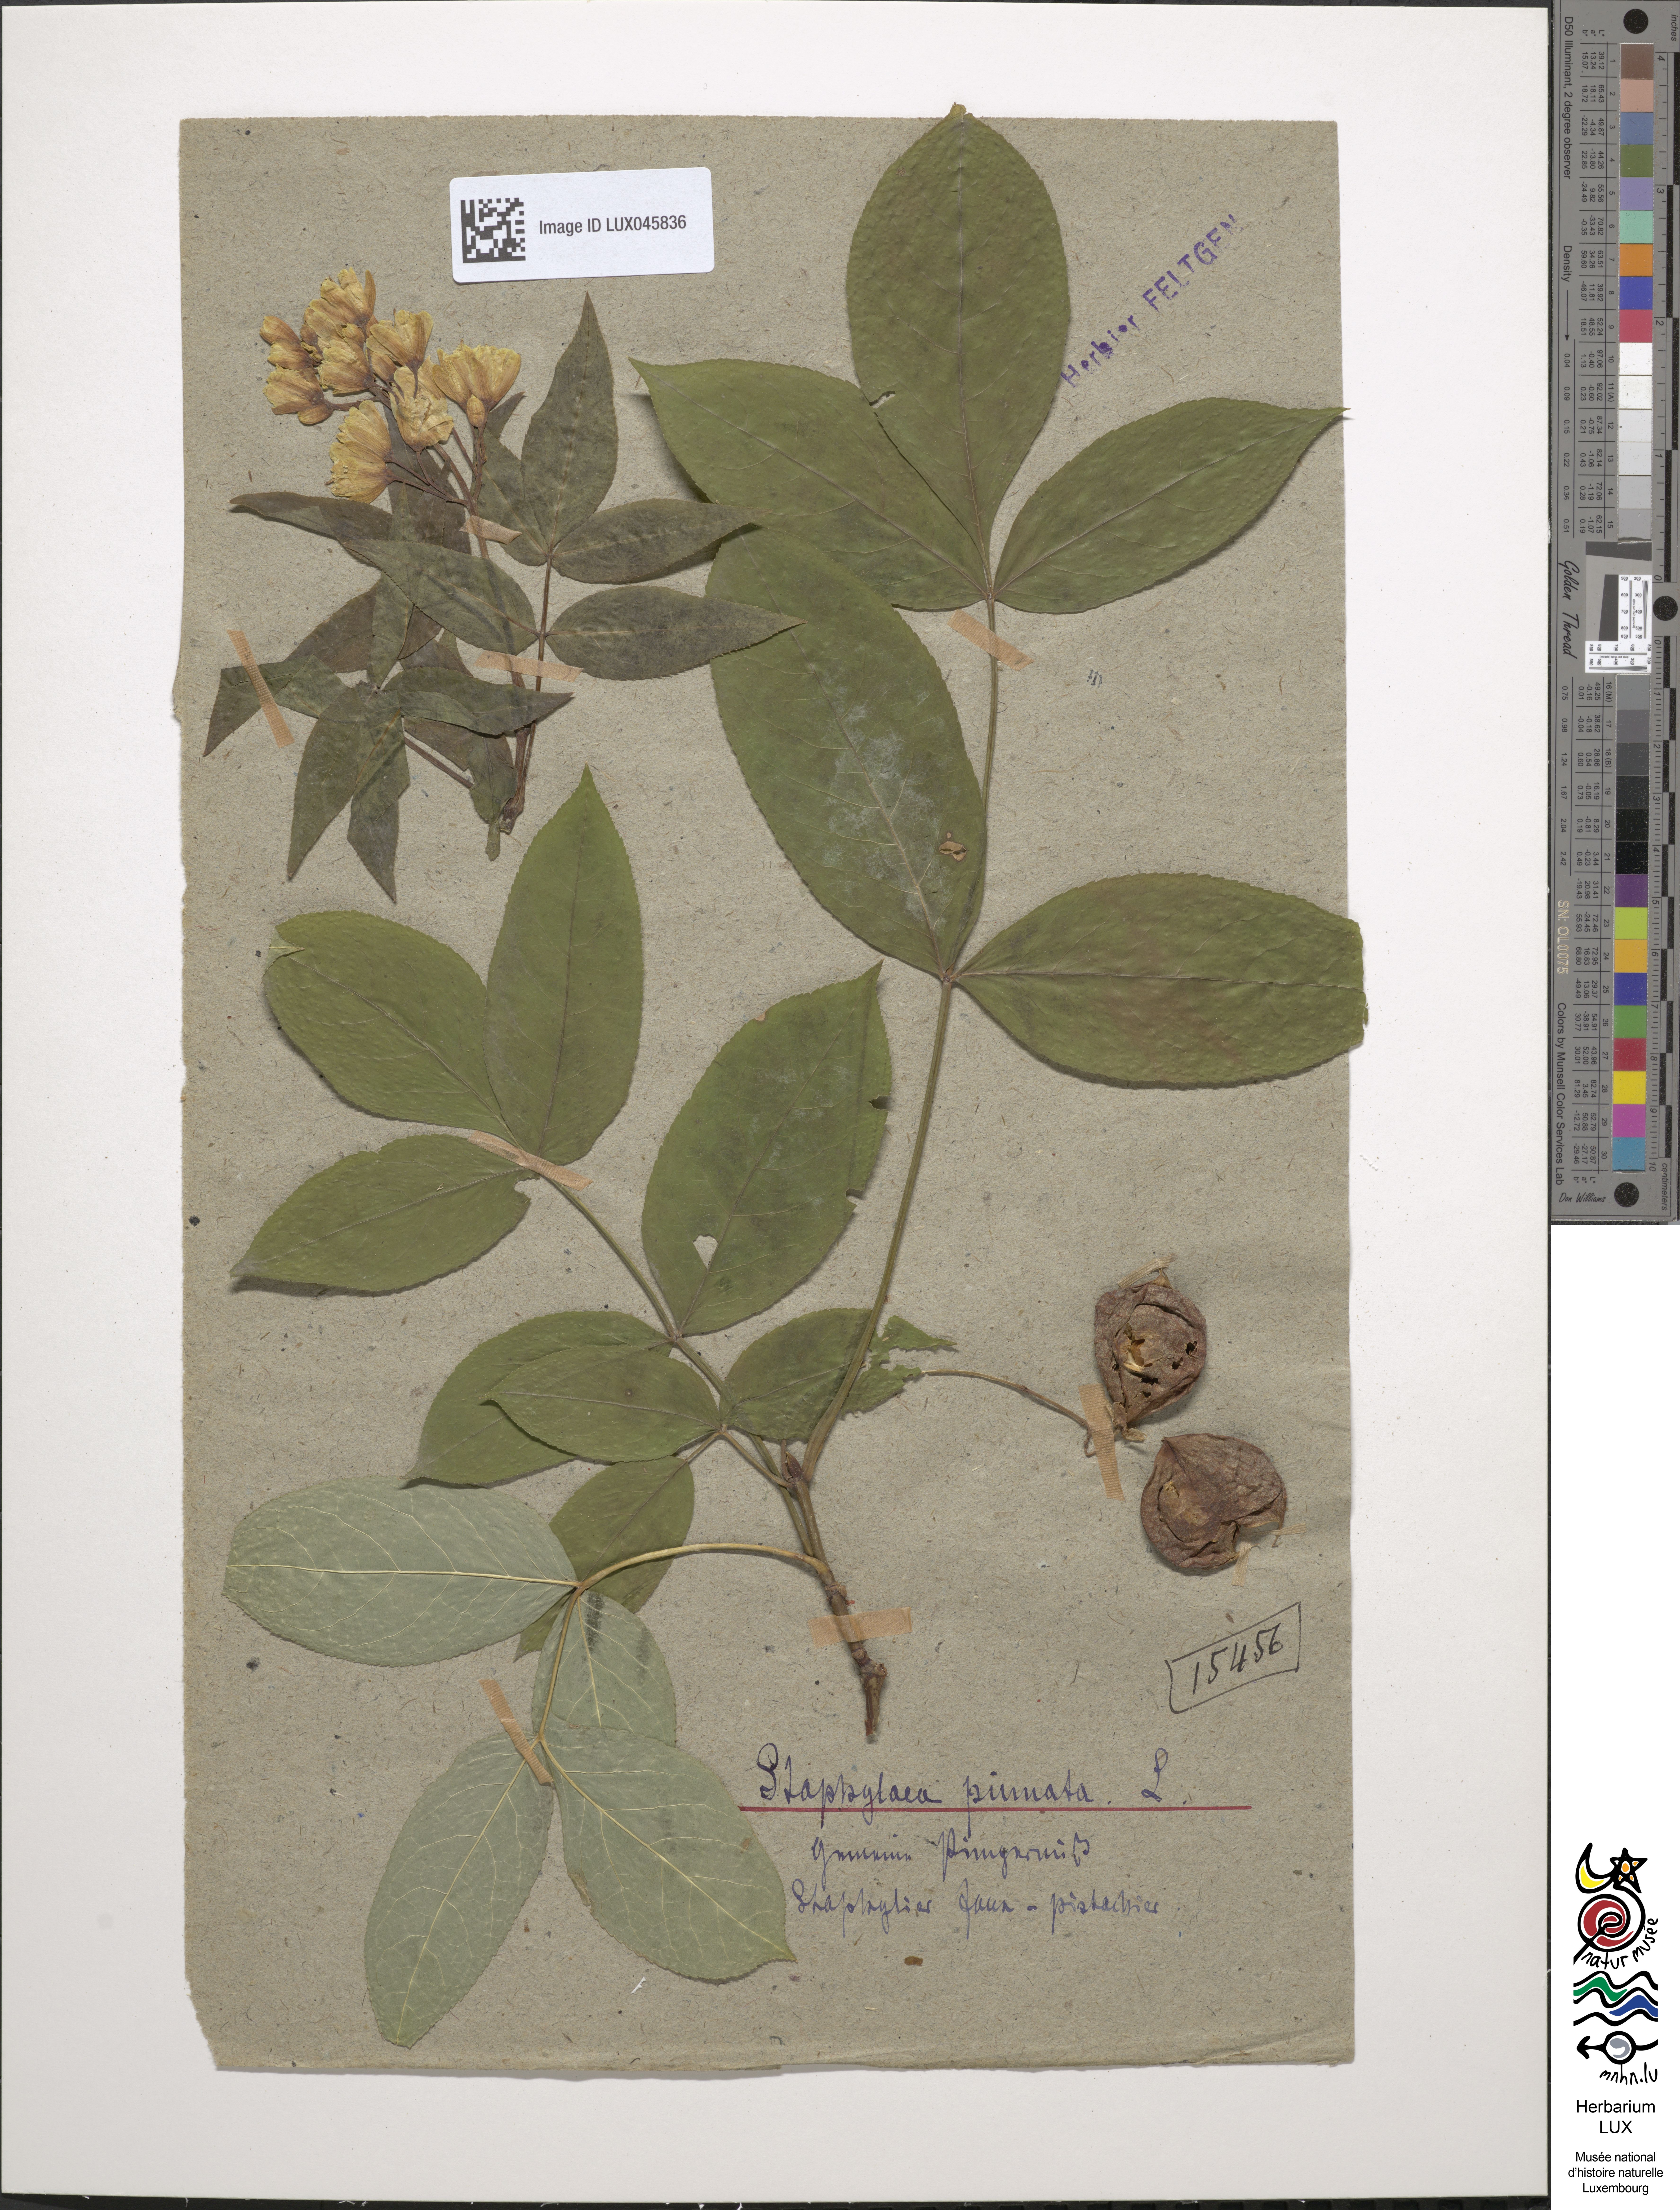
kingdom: Plantae
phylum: Tracheophyta
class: Magnoliopsida
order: Crossosomatales
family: Staphyleaceae
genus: Staphylea
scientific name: Staphylea pinnata
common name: Bladdernut
